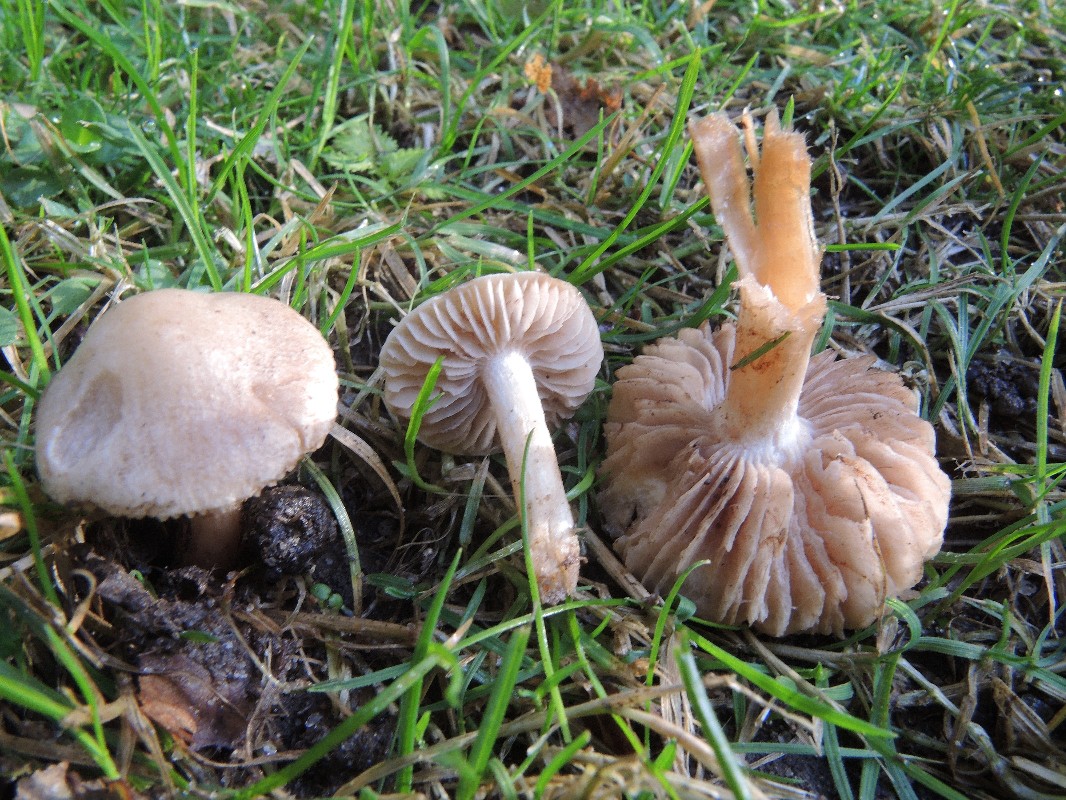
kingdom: Fungi
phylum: Basidiomycota
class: Agaricomycetes
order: Agaricales
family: Hymenogastraceae
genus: Hebeloma
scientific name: Hebeloma sacchariolens
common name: sødtduftende tåreblad
